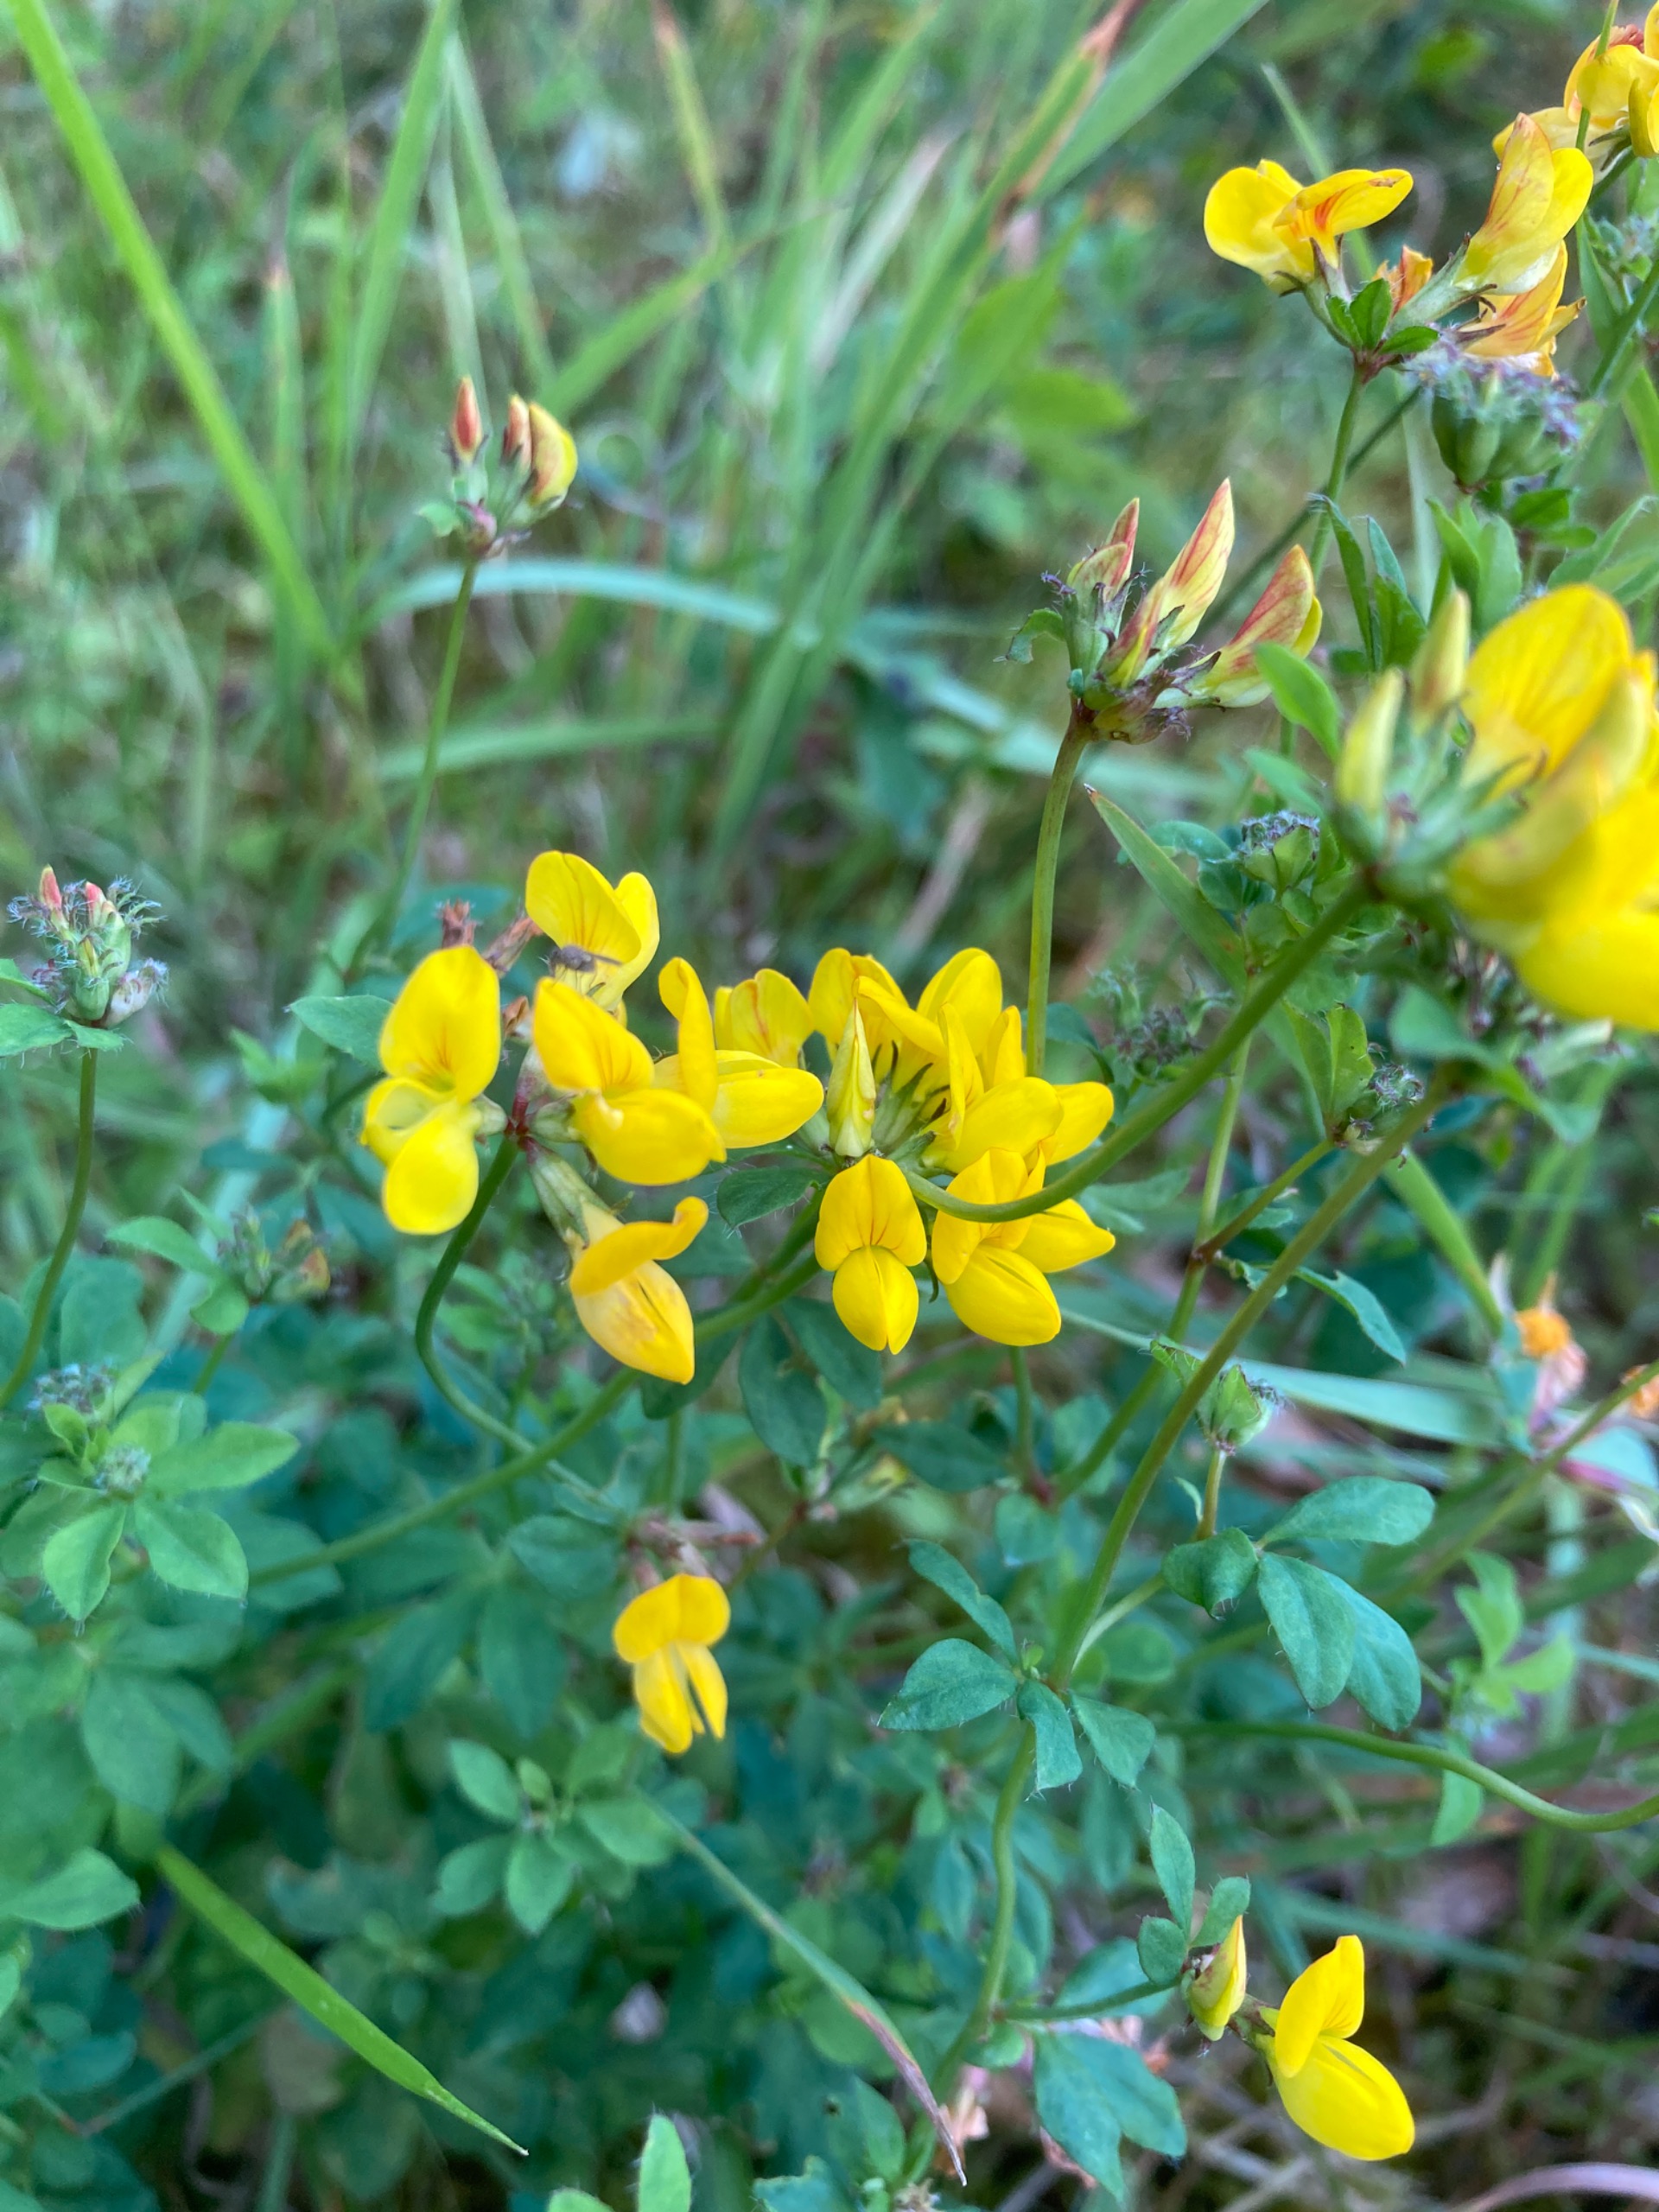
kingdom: Plantae
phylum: Tracheophyta
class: Magnoliopsida
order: Fabales
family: Fabaceae
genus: Lotus
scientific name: Lotus pedunculatus
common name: Sump-kællingetand
